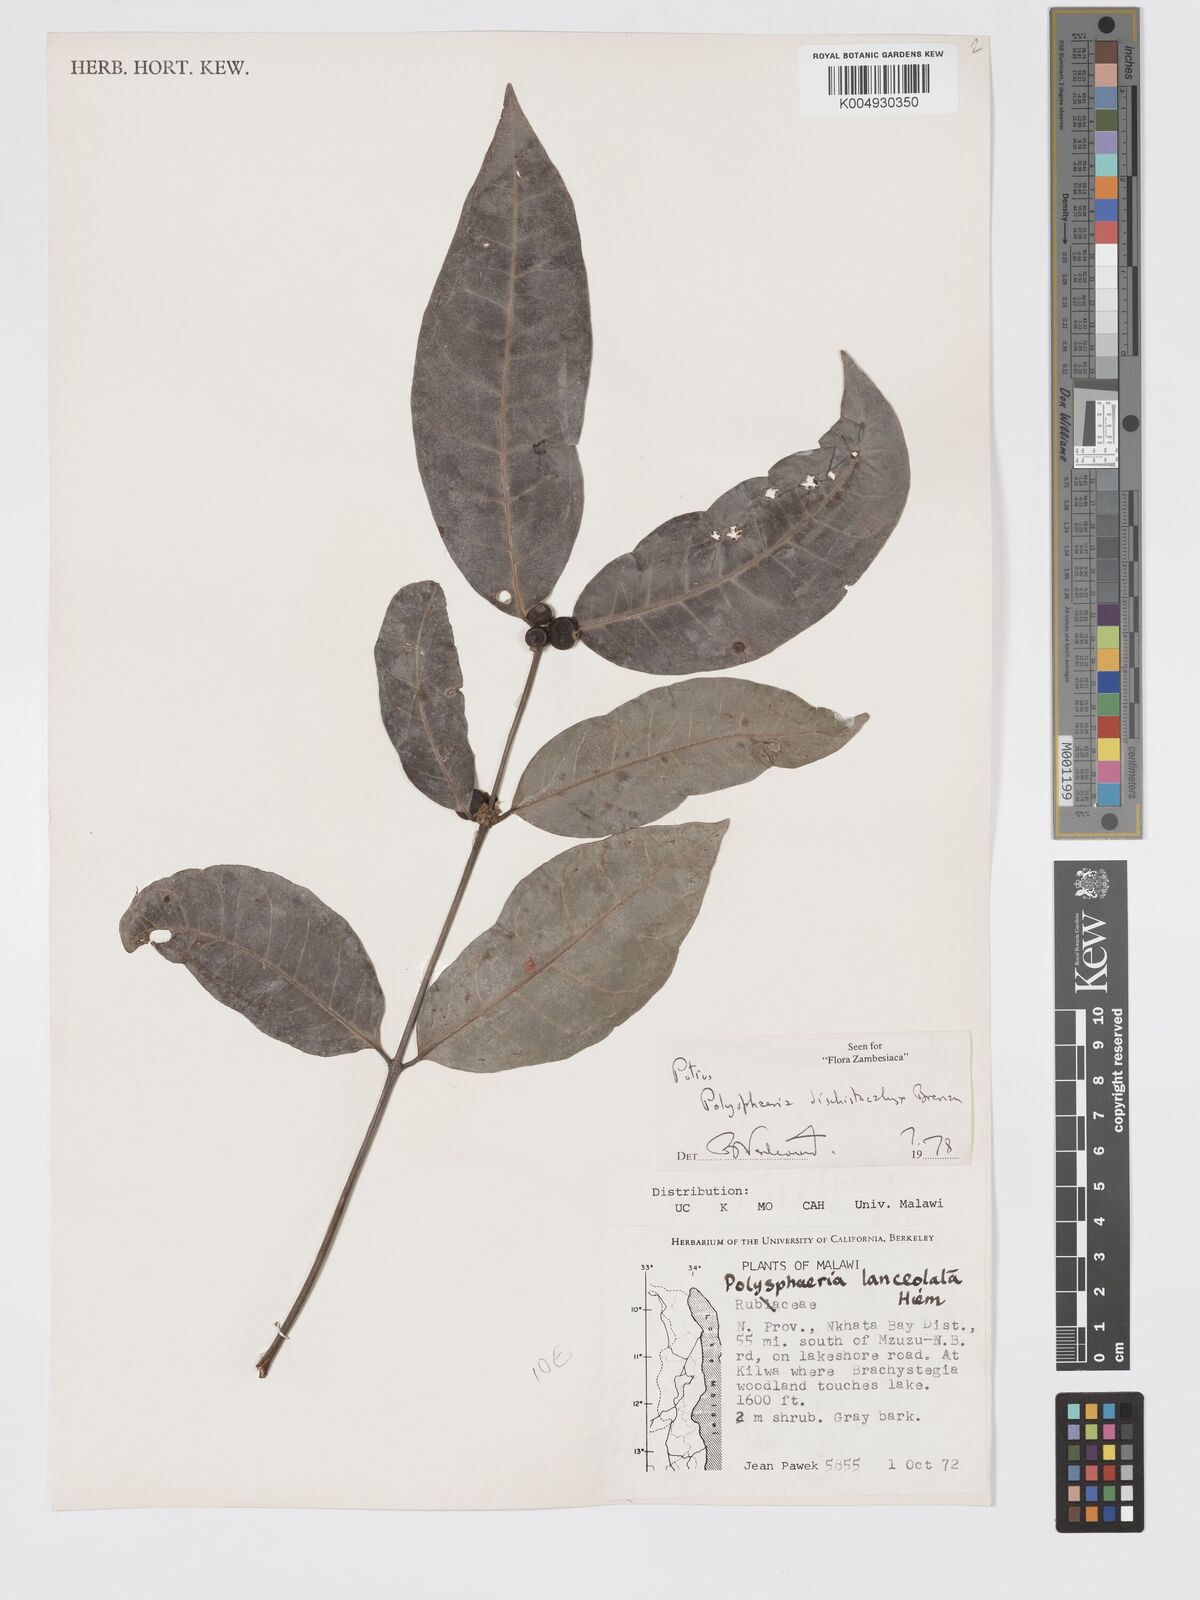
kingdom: Plantae
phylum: Tracheophyta
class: Magnoliopsida
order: Gentianales
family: Rubiaceae
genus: Polysphaeria
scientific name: Polysphaeria dischistocalyx
